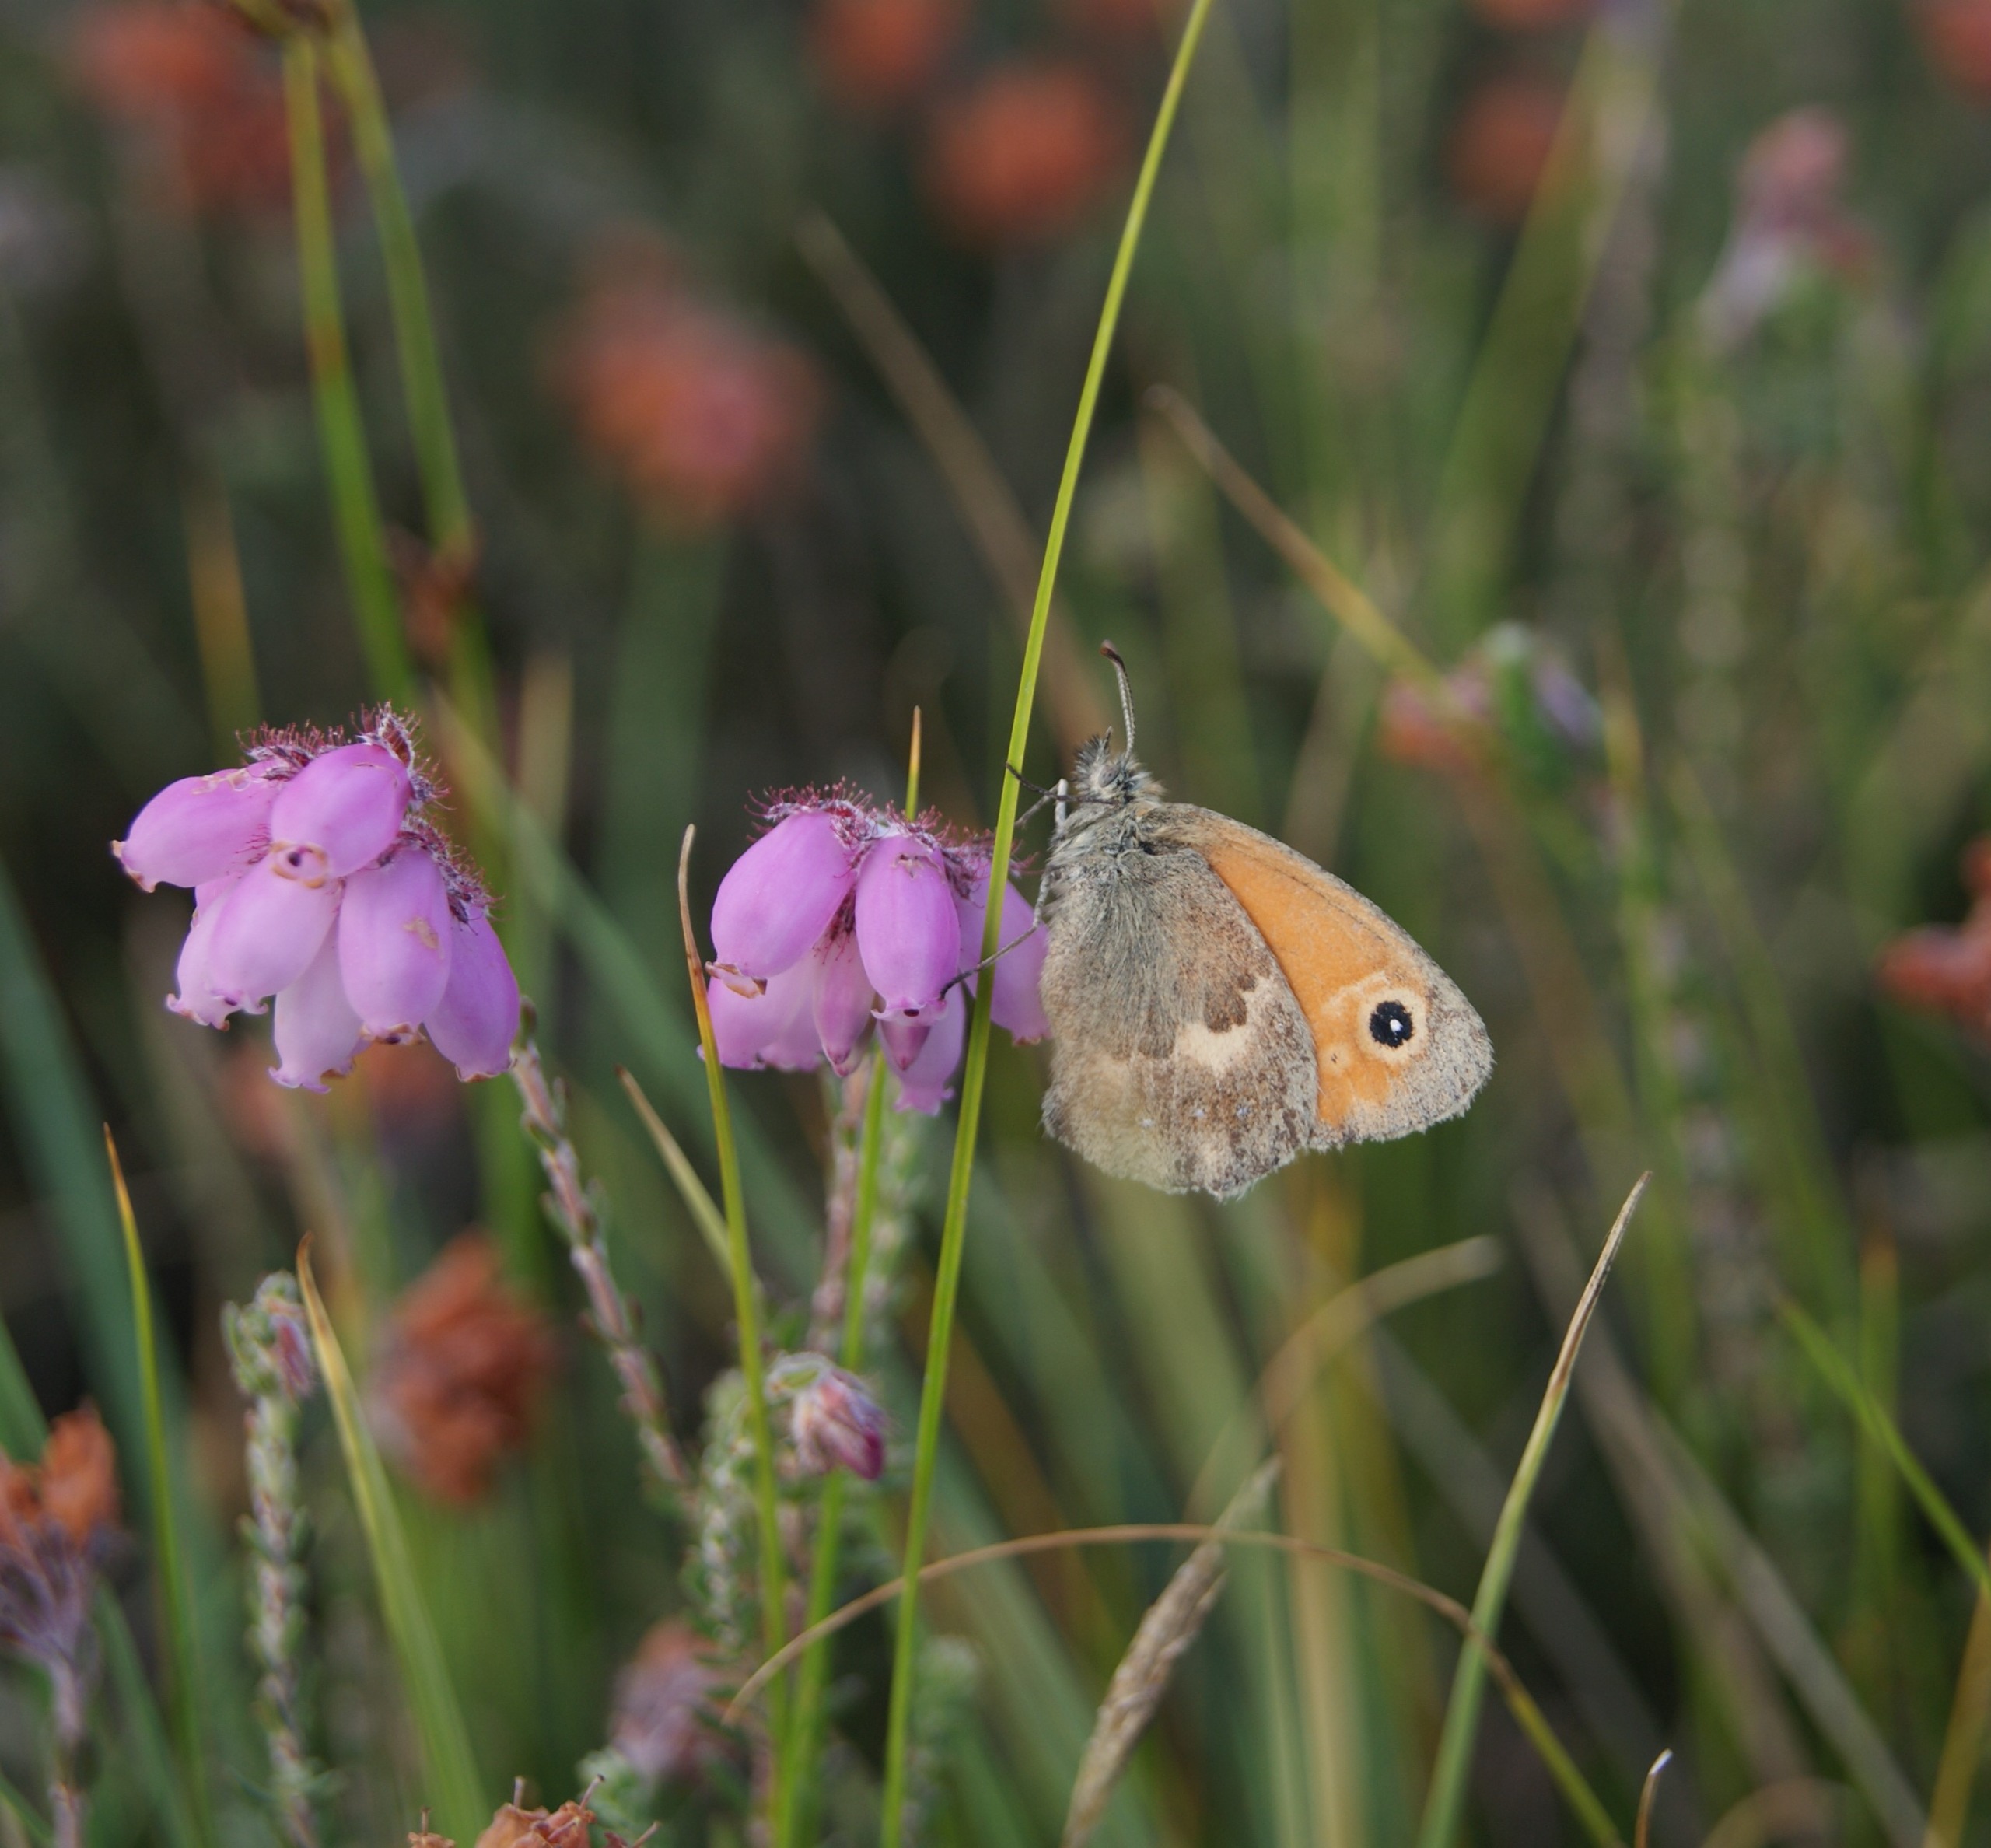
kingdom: Animalia
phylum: Arthropoda
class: Insecta
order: Lepidoptera
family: Nymphalidae
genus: Coenonympha
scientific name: Coenonympha pamphilus
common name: Okkergul randøje
